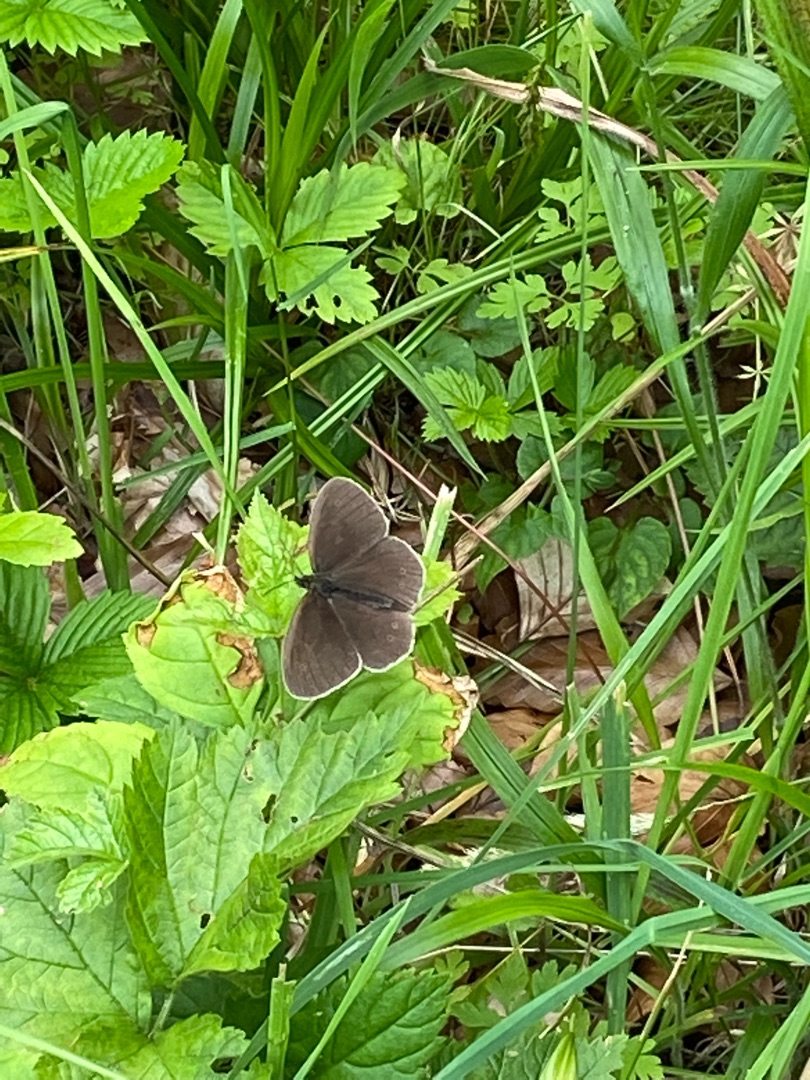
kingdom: Animalia
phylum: Arthropoda
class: Insecta
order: Lepidoptera
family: Nymphalidae
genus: Aphantopus
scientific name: Aphantopus hyperantus
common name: Engrandøje
